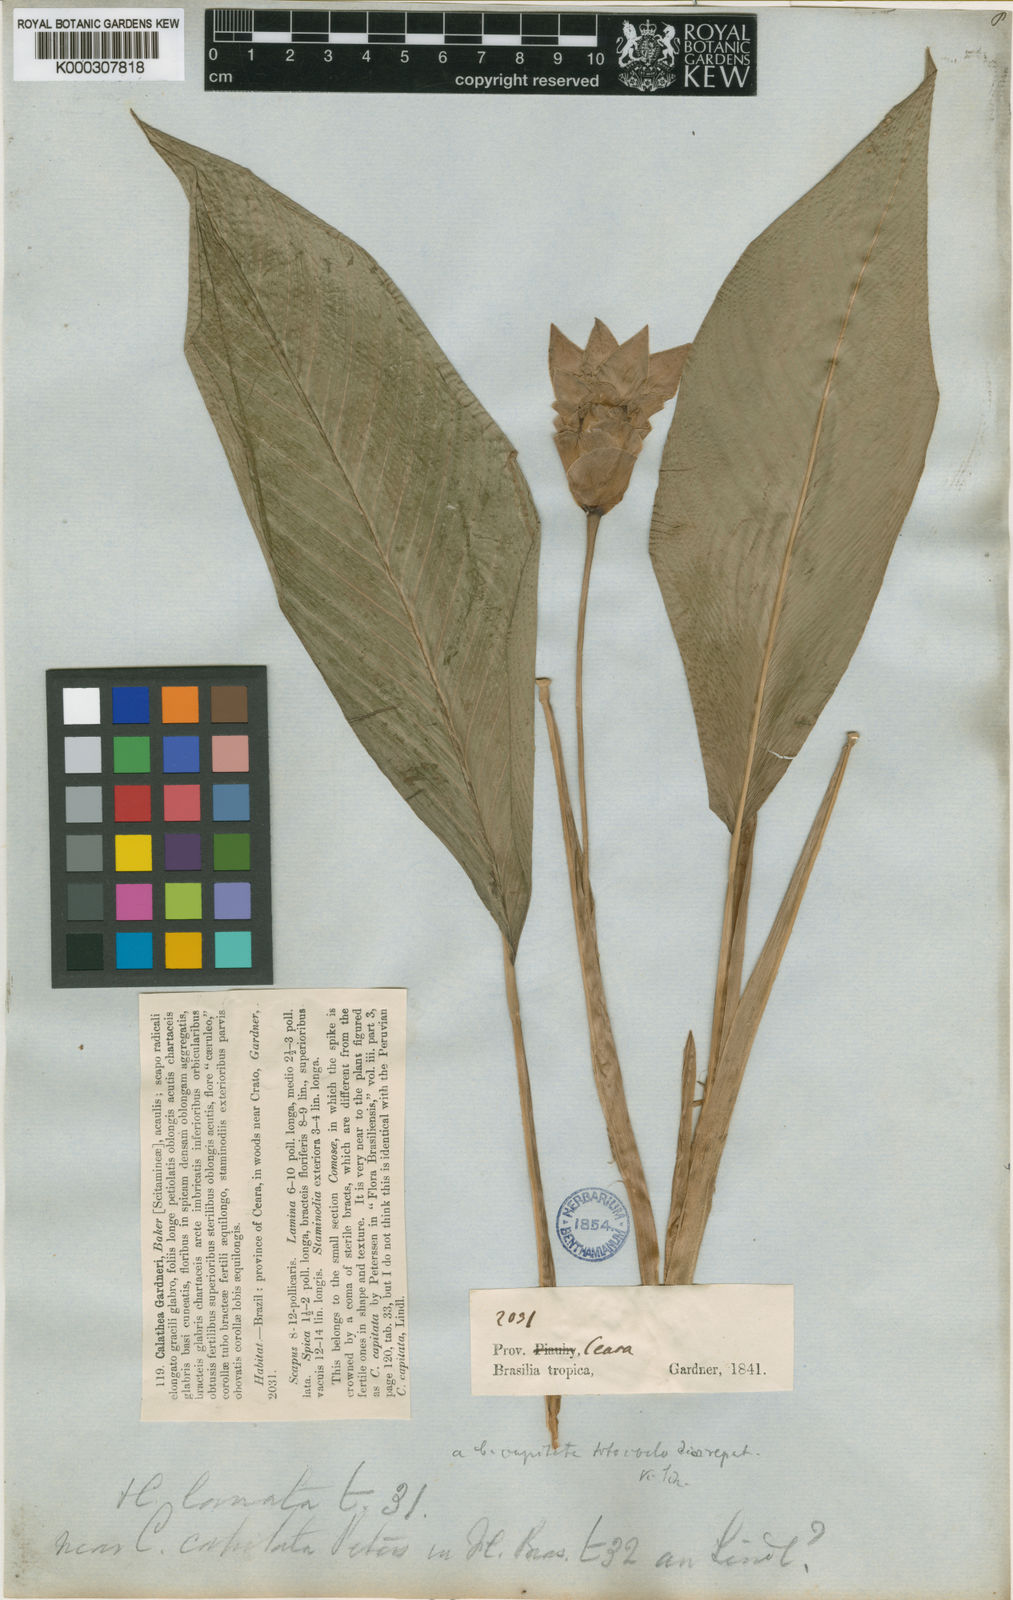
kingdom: Plantae
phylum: Tracheophyta
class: Liliopsida
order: Zingiberales
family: Marantaceae
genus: Goeppertia
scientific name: Goeppertia gardneri
